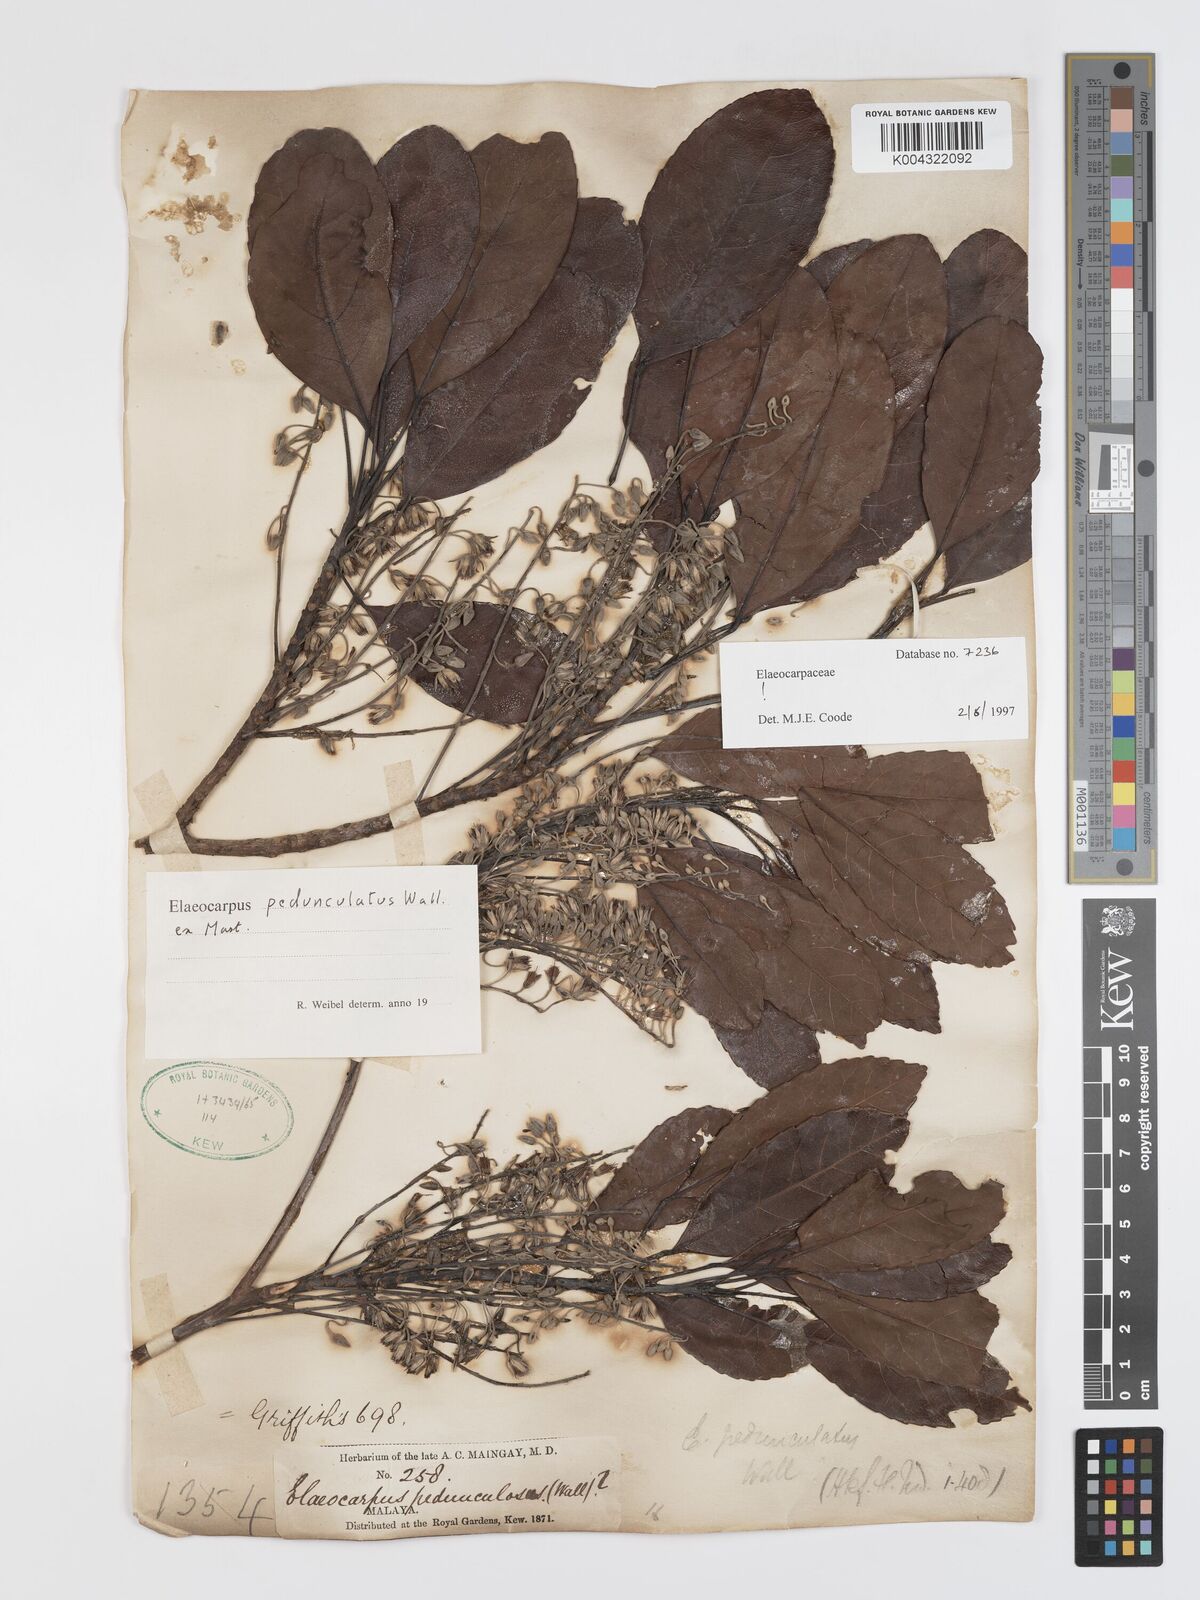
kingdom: Plantae
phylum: Tracheophyta
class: Magnoliopsida
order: Oxalidales
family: Elaeocarpaceae
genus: Elaeocarpus
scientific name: Elaeocarpus pedunculatus
